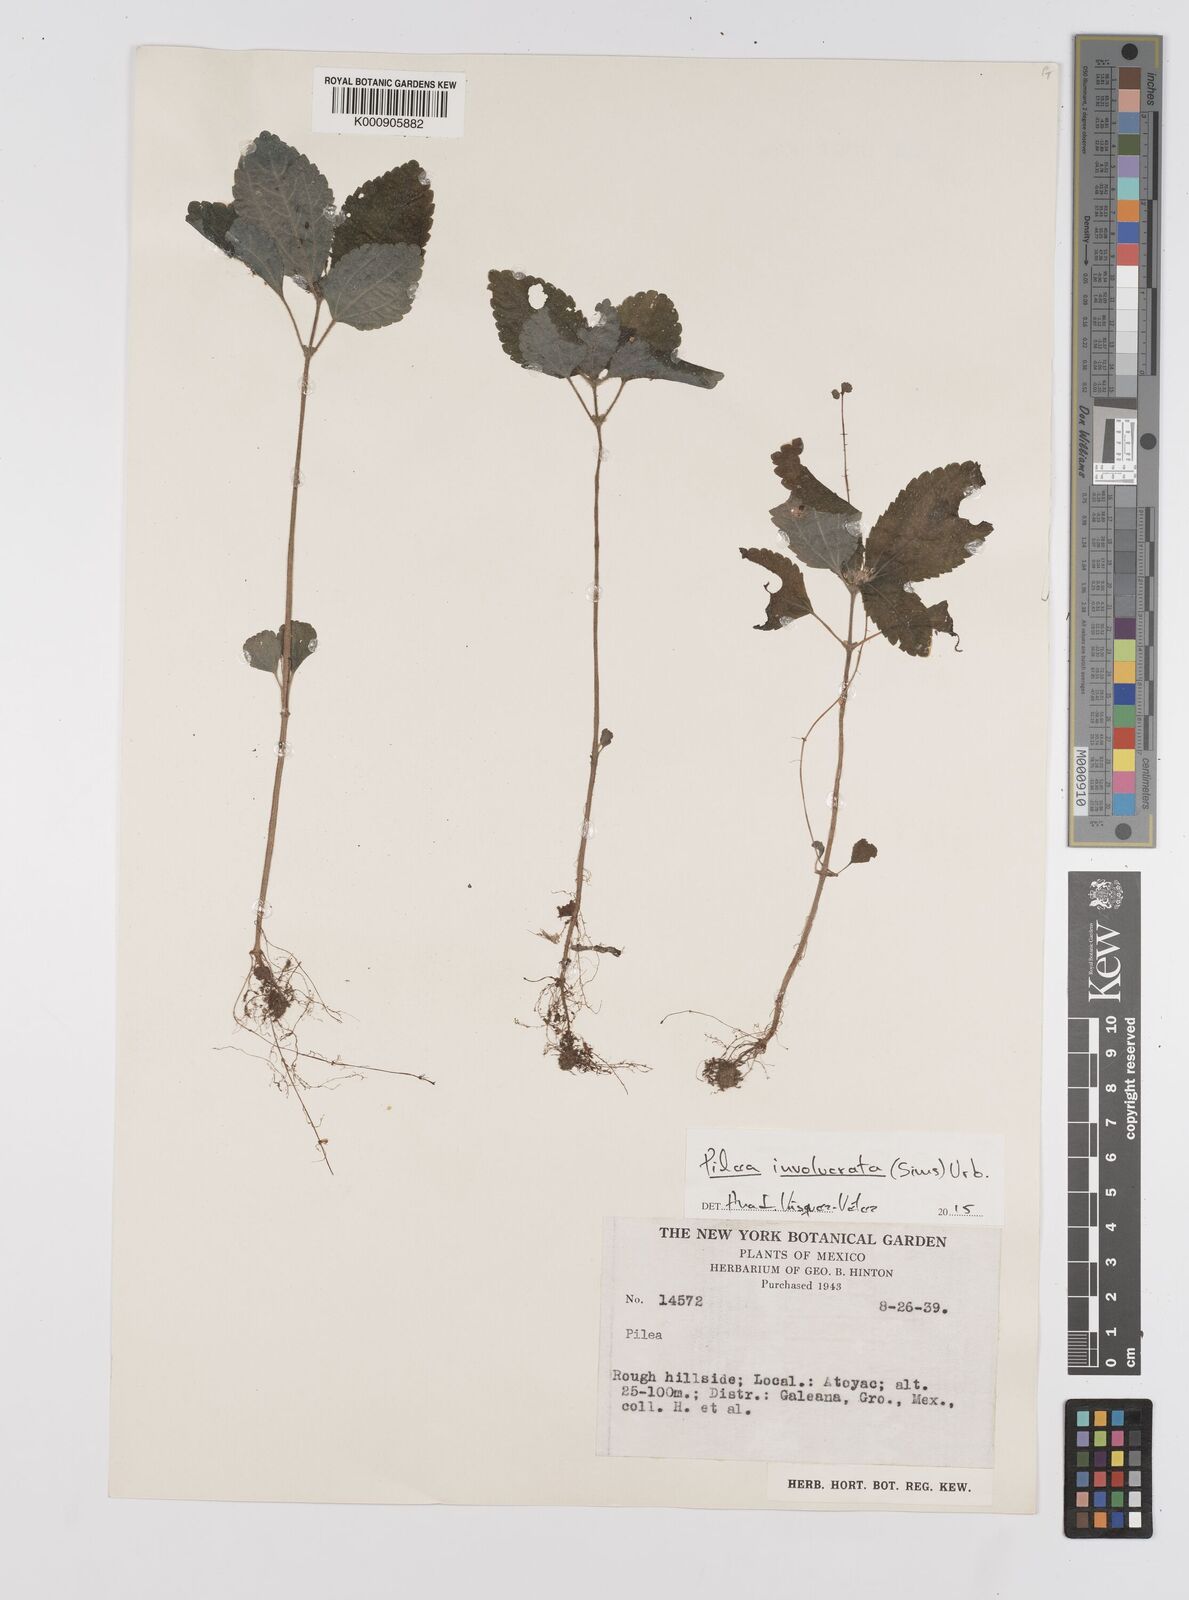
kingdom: Plantae
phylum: Tracheophyta
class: Magnoliopsida
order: Rosales
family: Urticaceae
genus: Pilea
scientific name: Pilea
